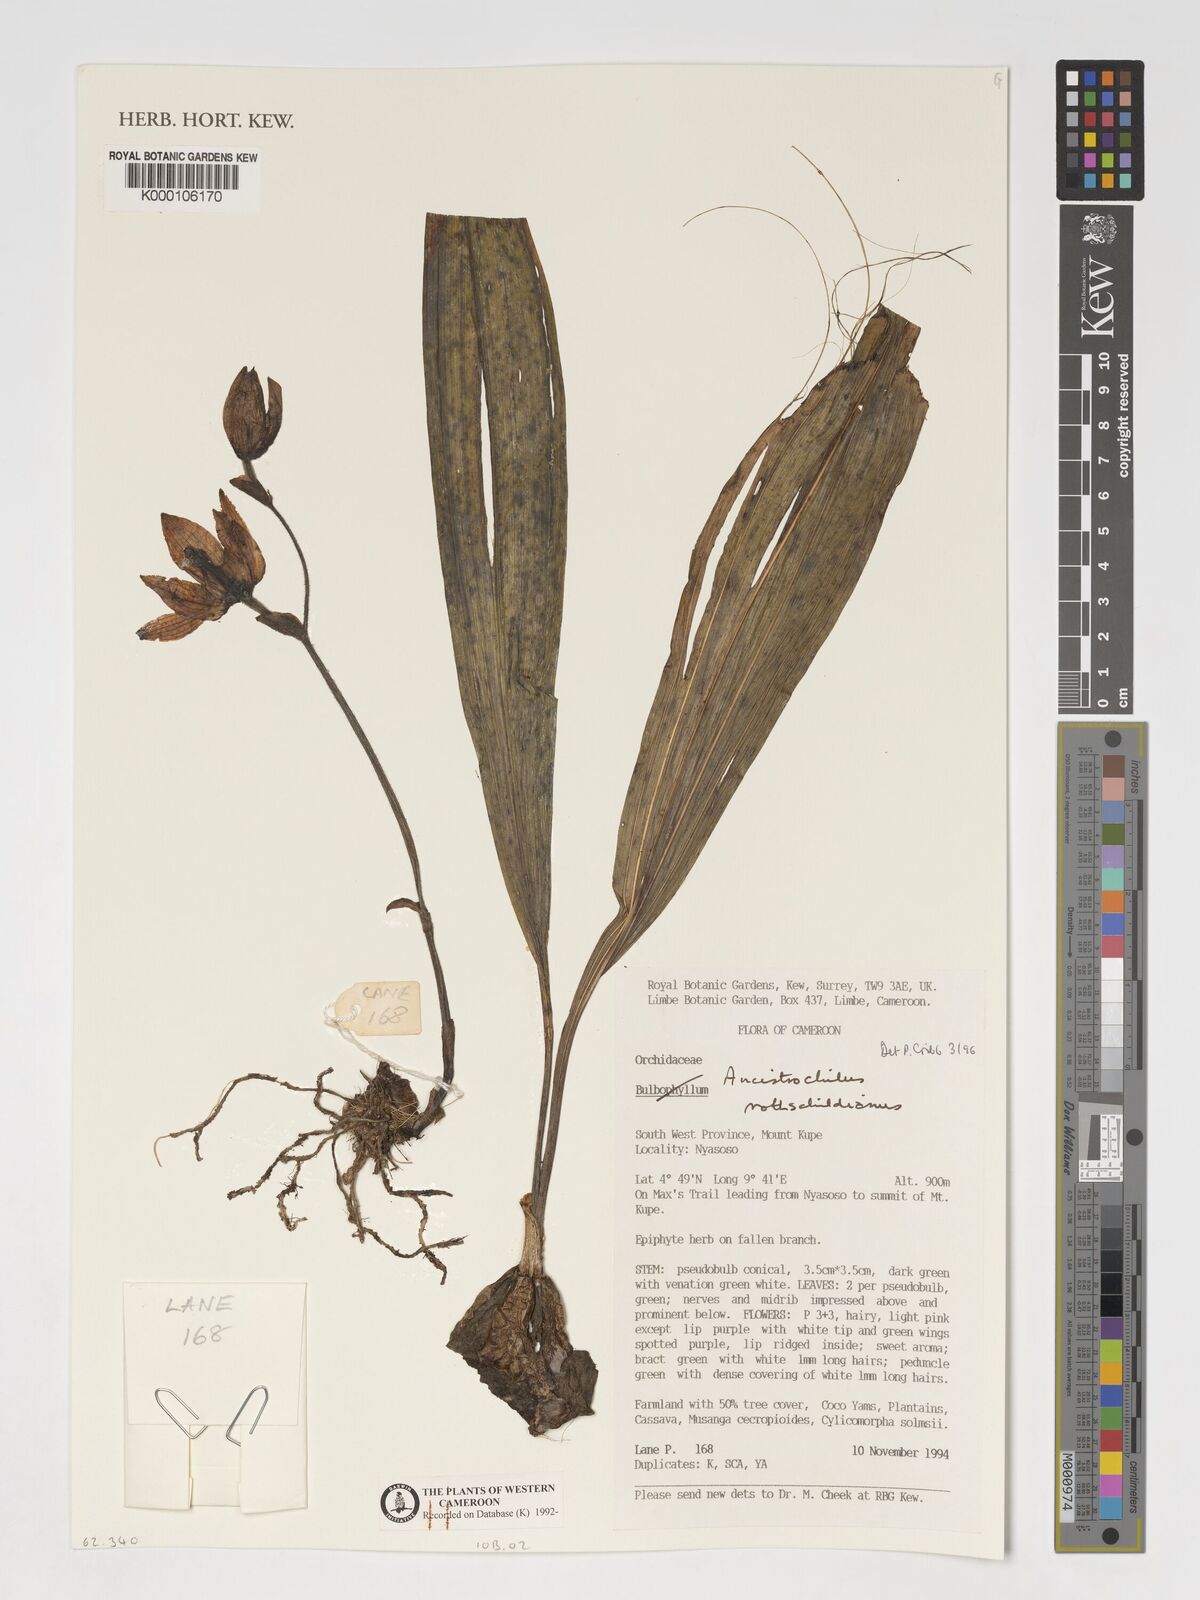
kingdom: Plantae
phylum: Tracheophyta
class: Liliopsida
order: Asparagales
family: Orchidaceae
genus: Ancistrochilus
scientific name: Ancistrochilus rothschildianus
